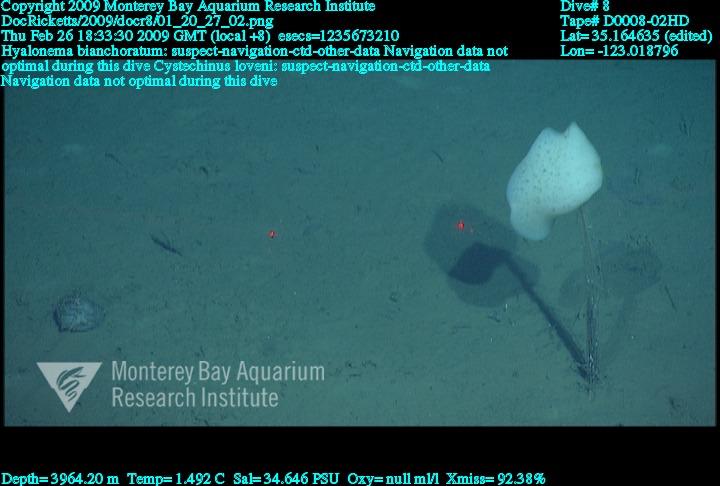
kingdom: Animalia
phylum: Porifera
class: Hexactinellida
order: Amphidiscosida
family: Hyalonematidae
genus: Hyalonema
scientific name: Hyalonema bianchoratum
